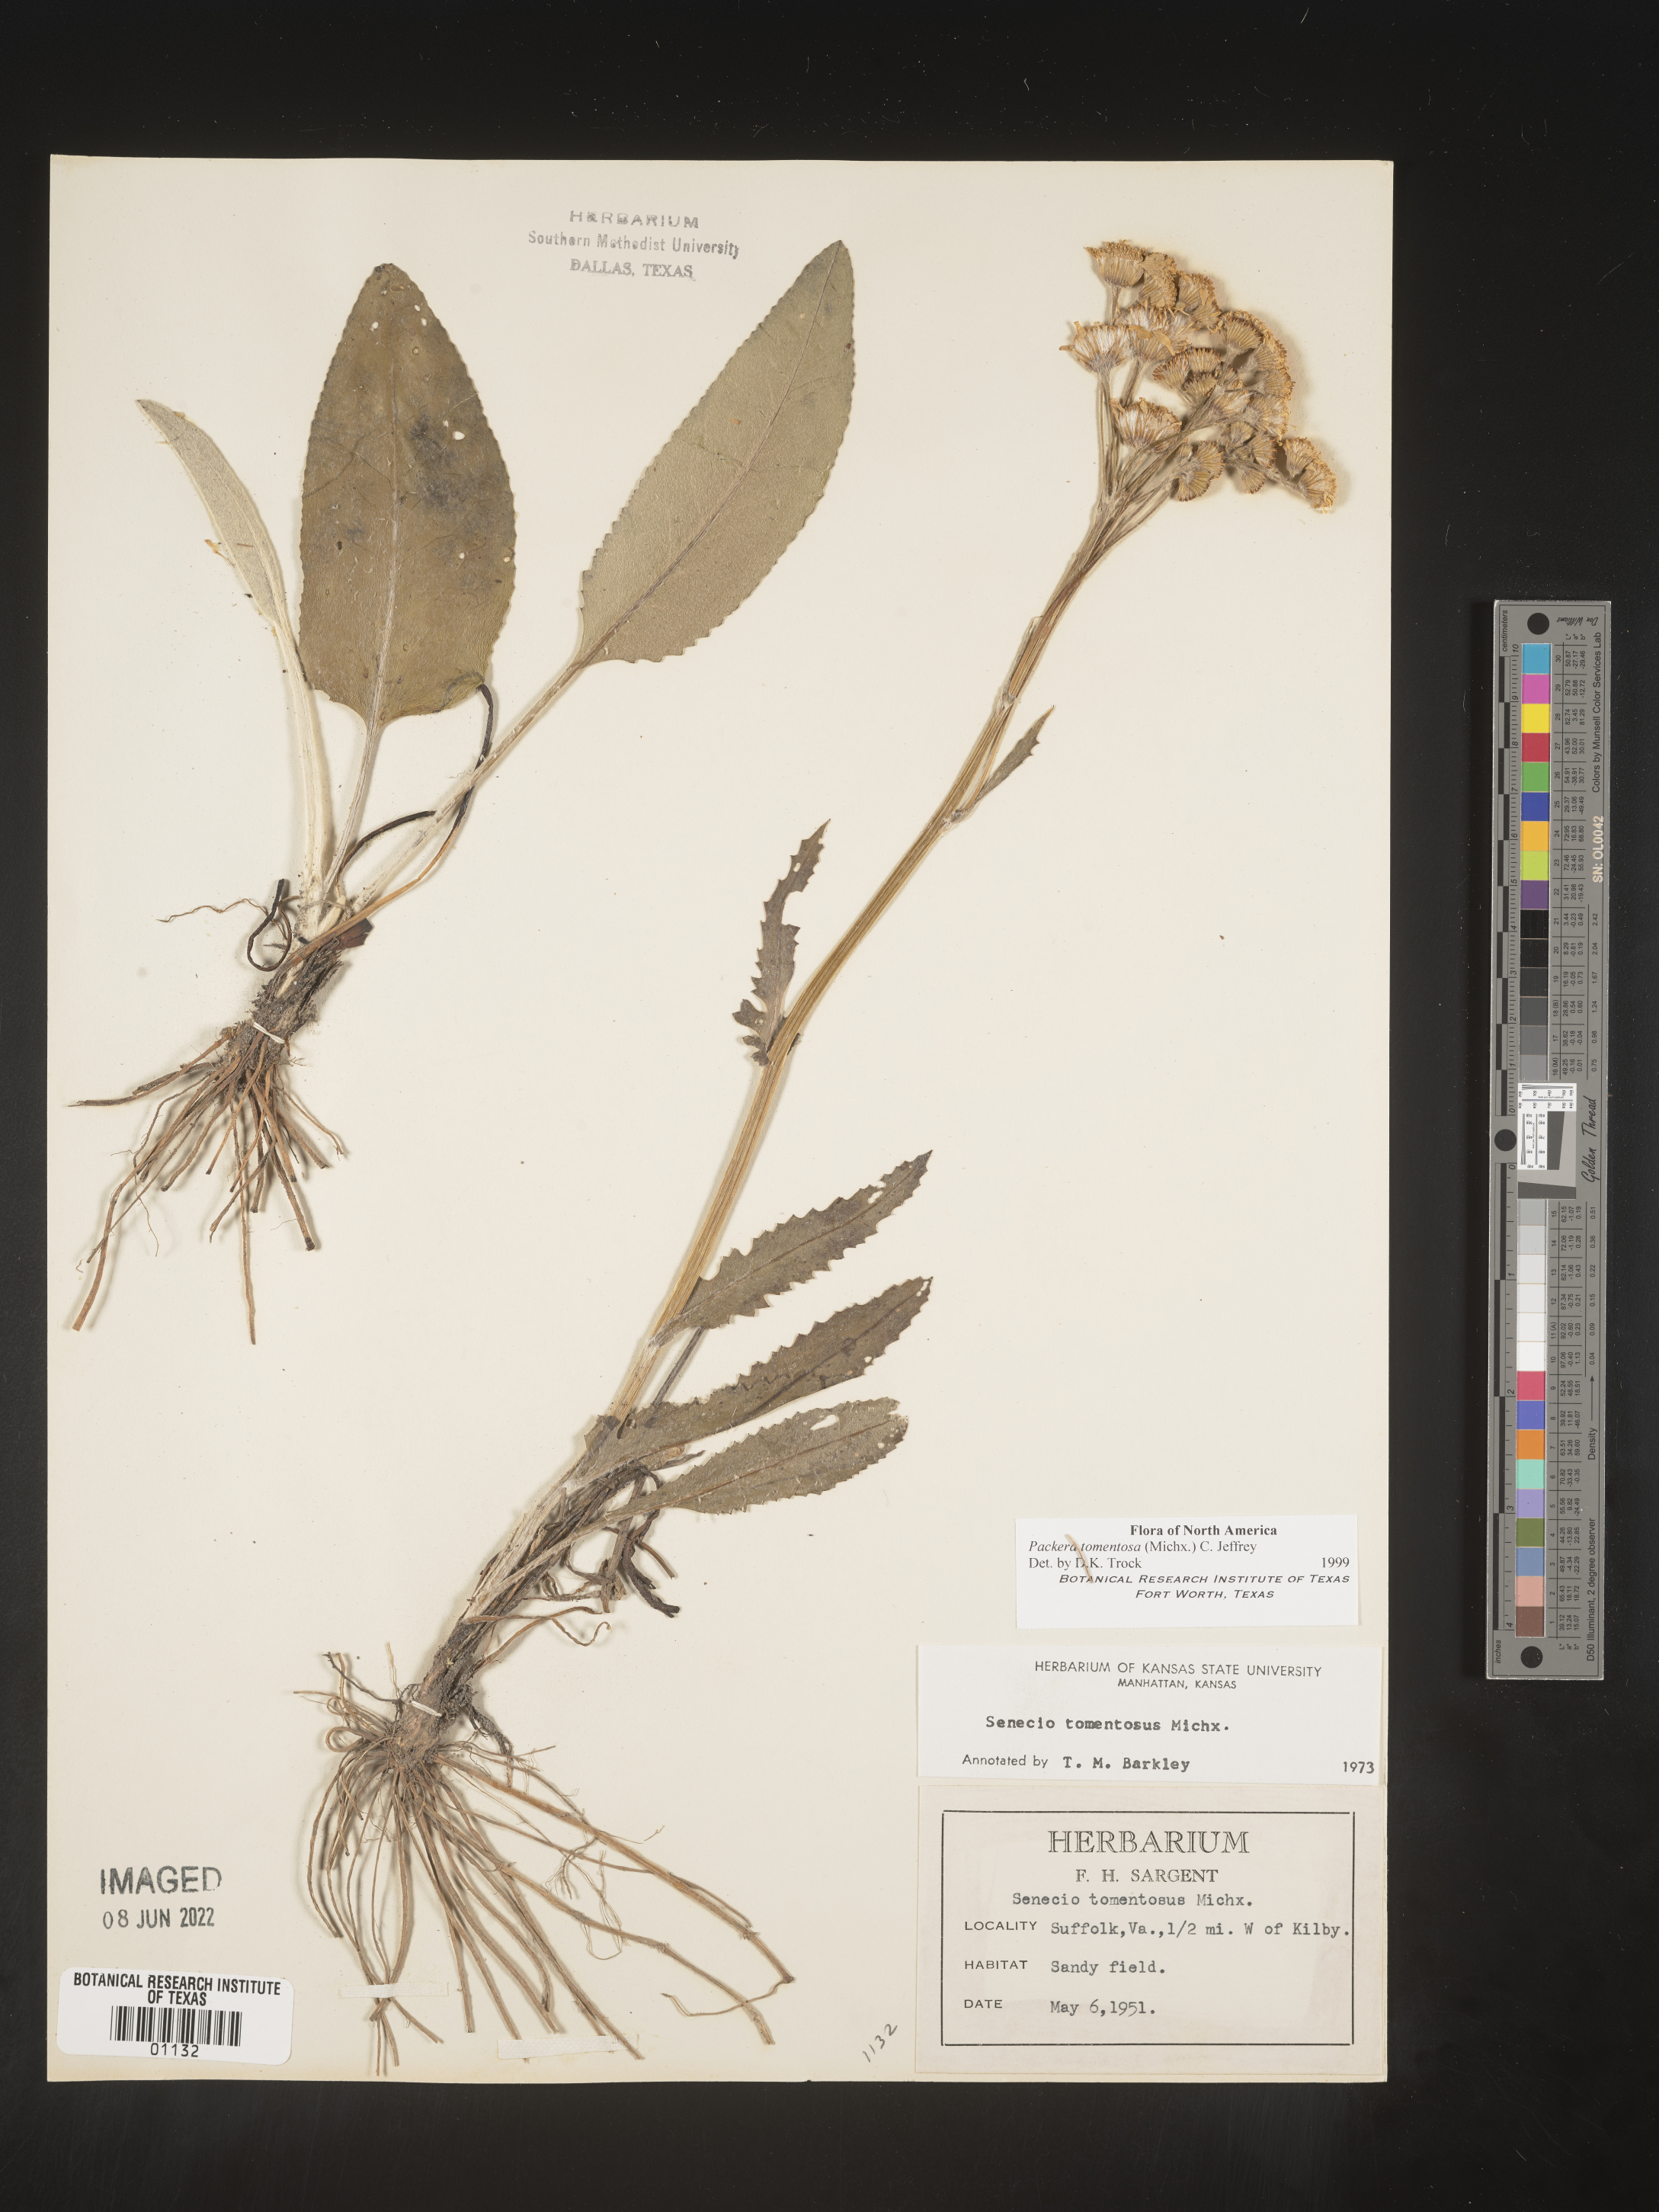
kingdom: Plantae
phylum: Tracheophyta
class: Magnoliopsida
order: Asterales
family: Asteraceae
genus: Packera
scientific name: Packera dubia
